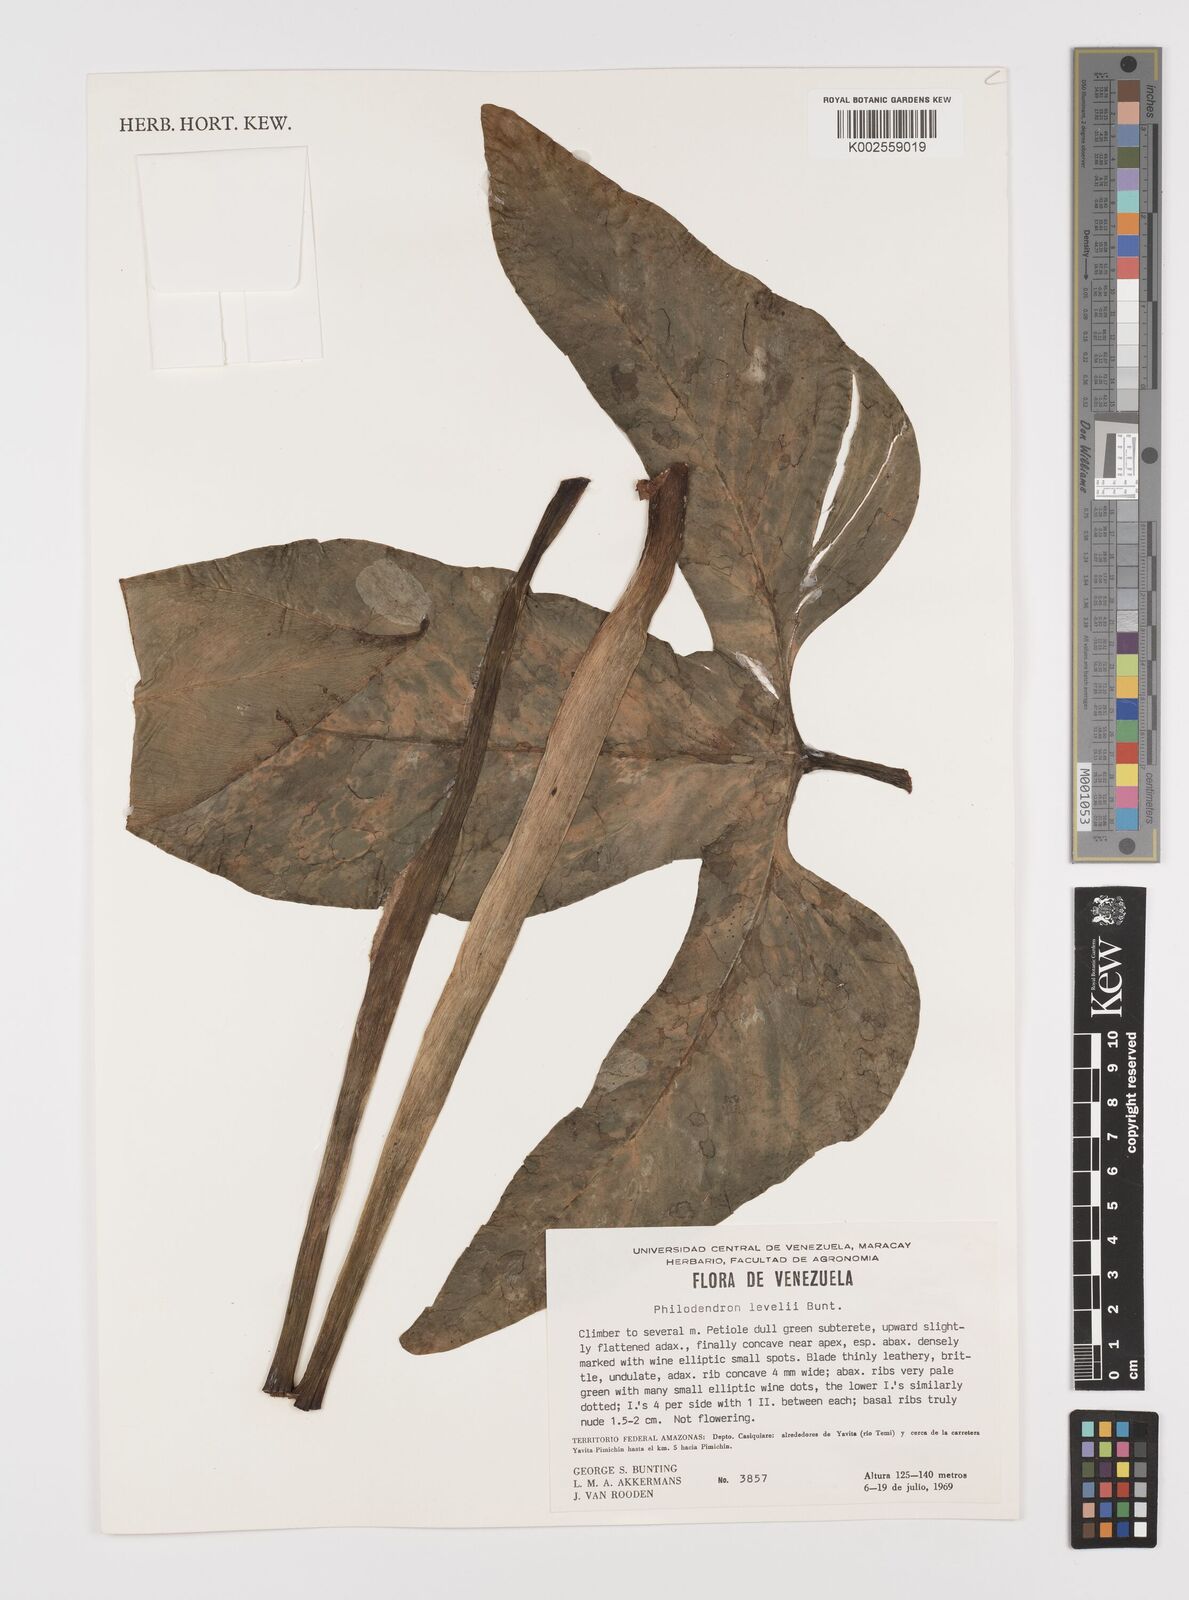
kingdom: Plantae
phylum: Tracheophyta
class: Liliopsida
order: Alismatales
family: Araceae
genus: Philodendron
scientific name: Philodendron barrosoanum
